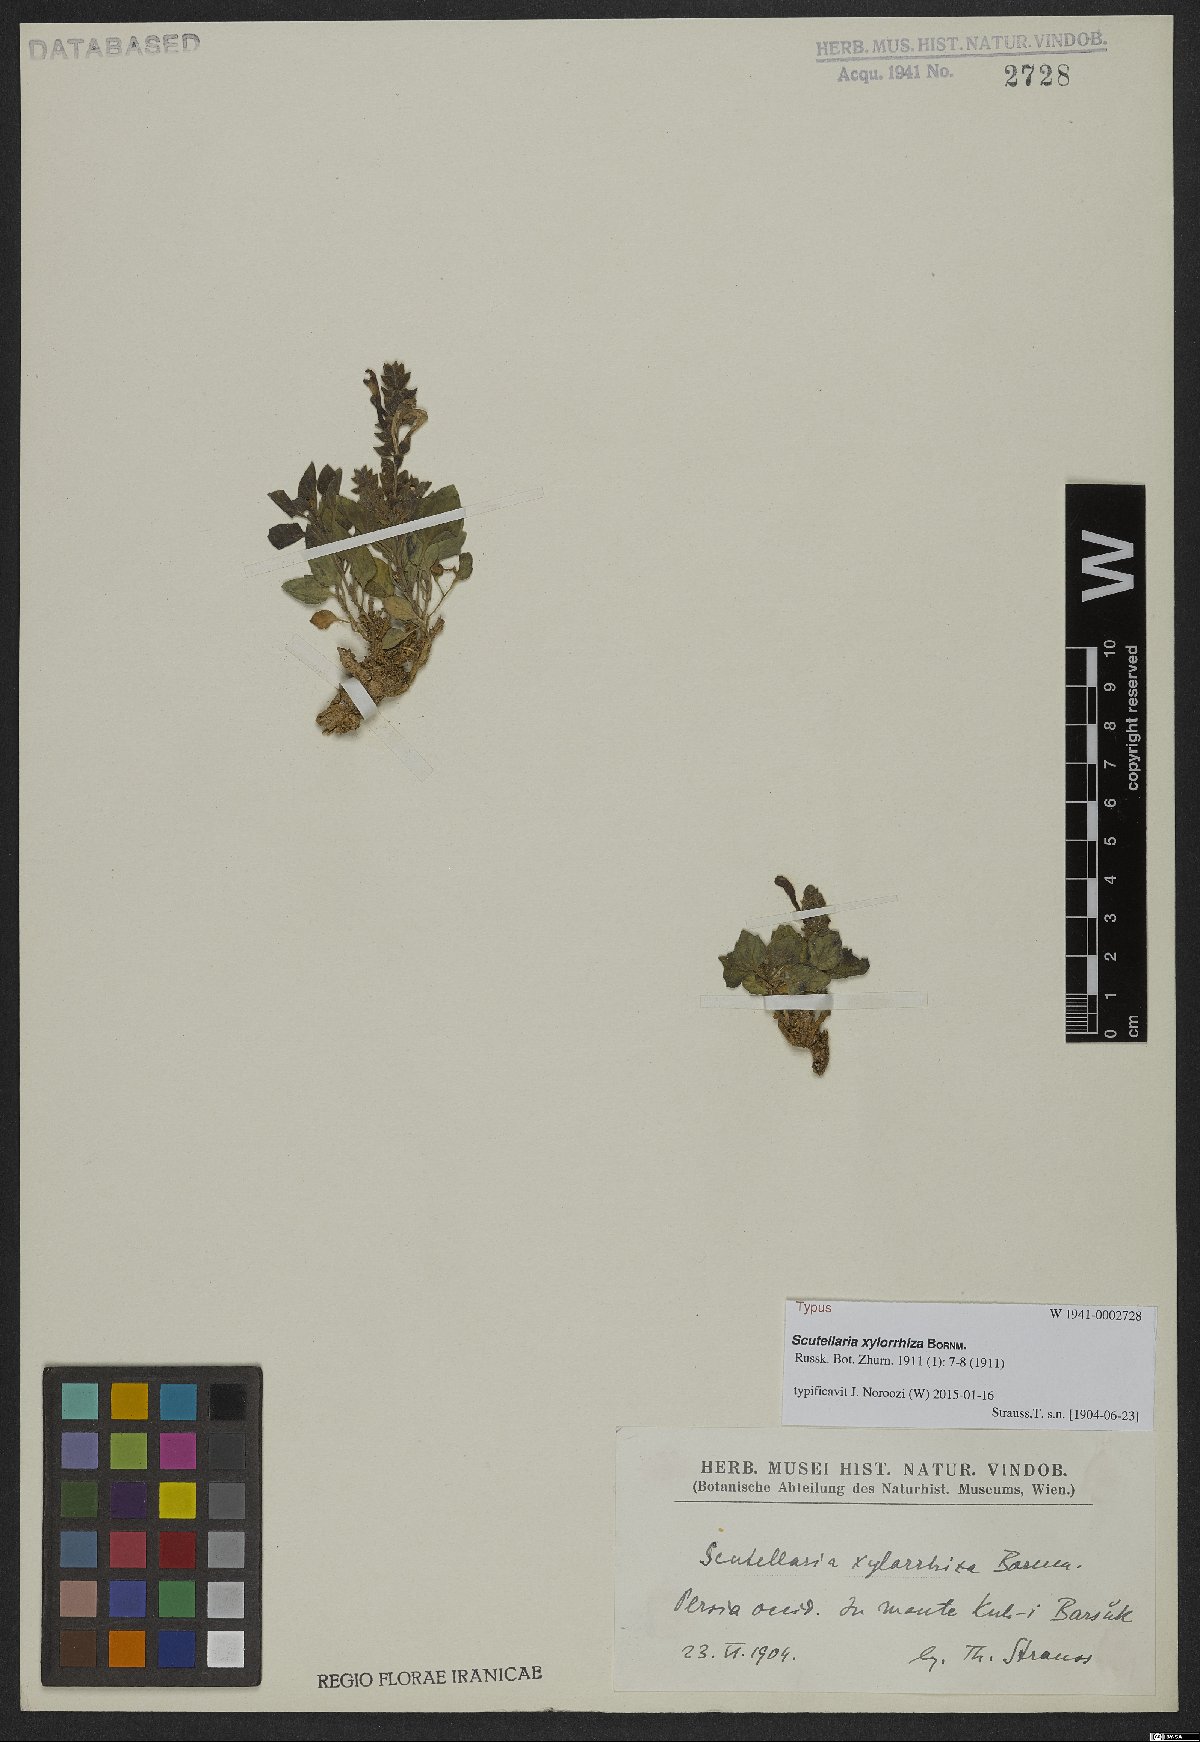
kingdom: Plantae
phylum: Tracheophyta
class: Magnoliopsida
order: Lamiales
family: Lamiaceae
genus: Scutellaria
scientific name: Scutellaria xylorrhiza
